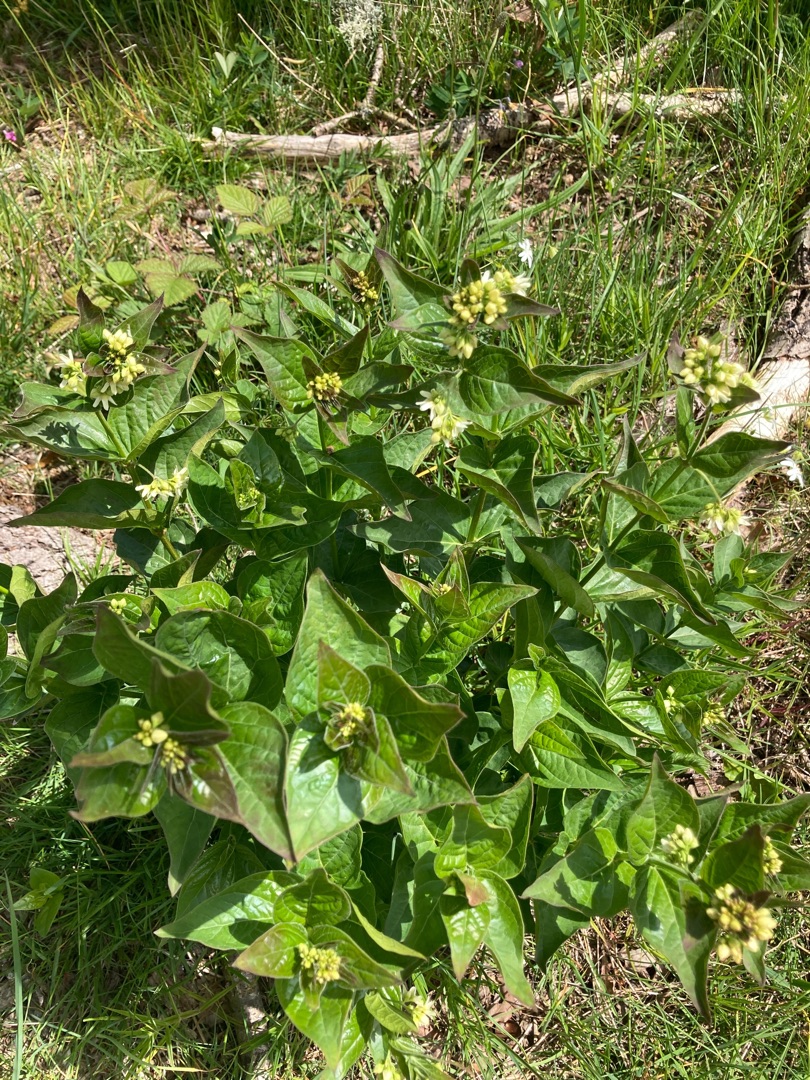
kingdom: Plantae
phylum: Tracheophyta
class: Magnoliopsida
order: Gentianales
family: Apocynaceae
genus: Vincetoxicum
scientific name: Vincetoxicum hirundinaria
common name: Svalerod
